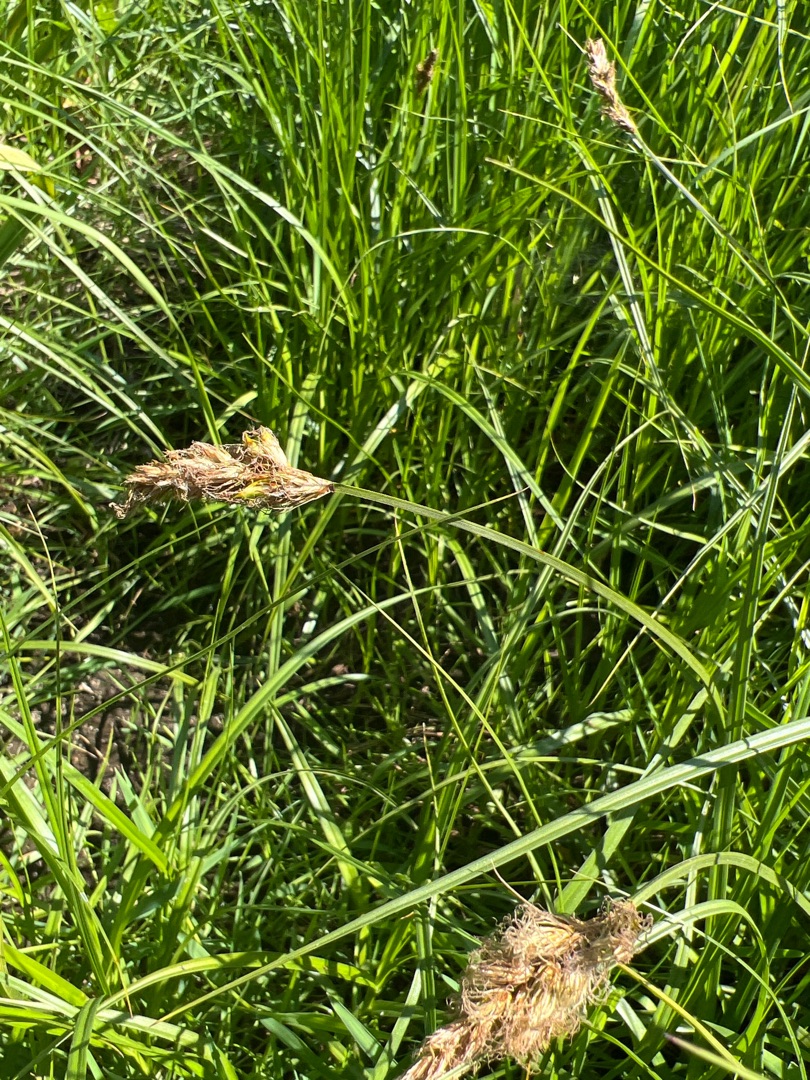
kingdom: Plantae
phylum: Tracheophyta
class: Liliopsida
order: Poales
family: Cyperaceae
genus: Carex
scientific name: Carex disticha
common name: Toradet star
